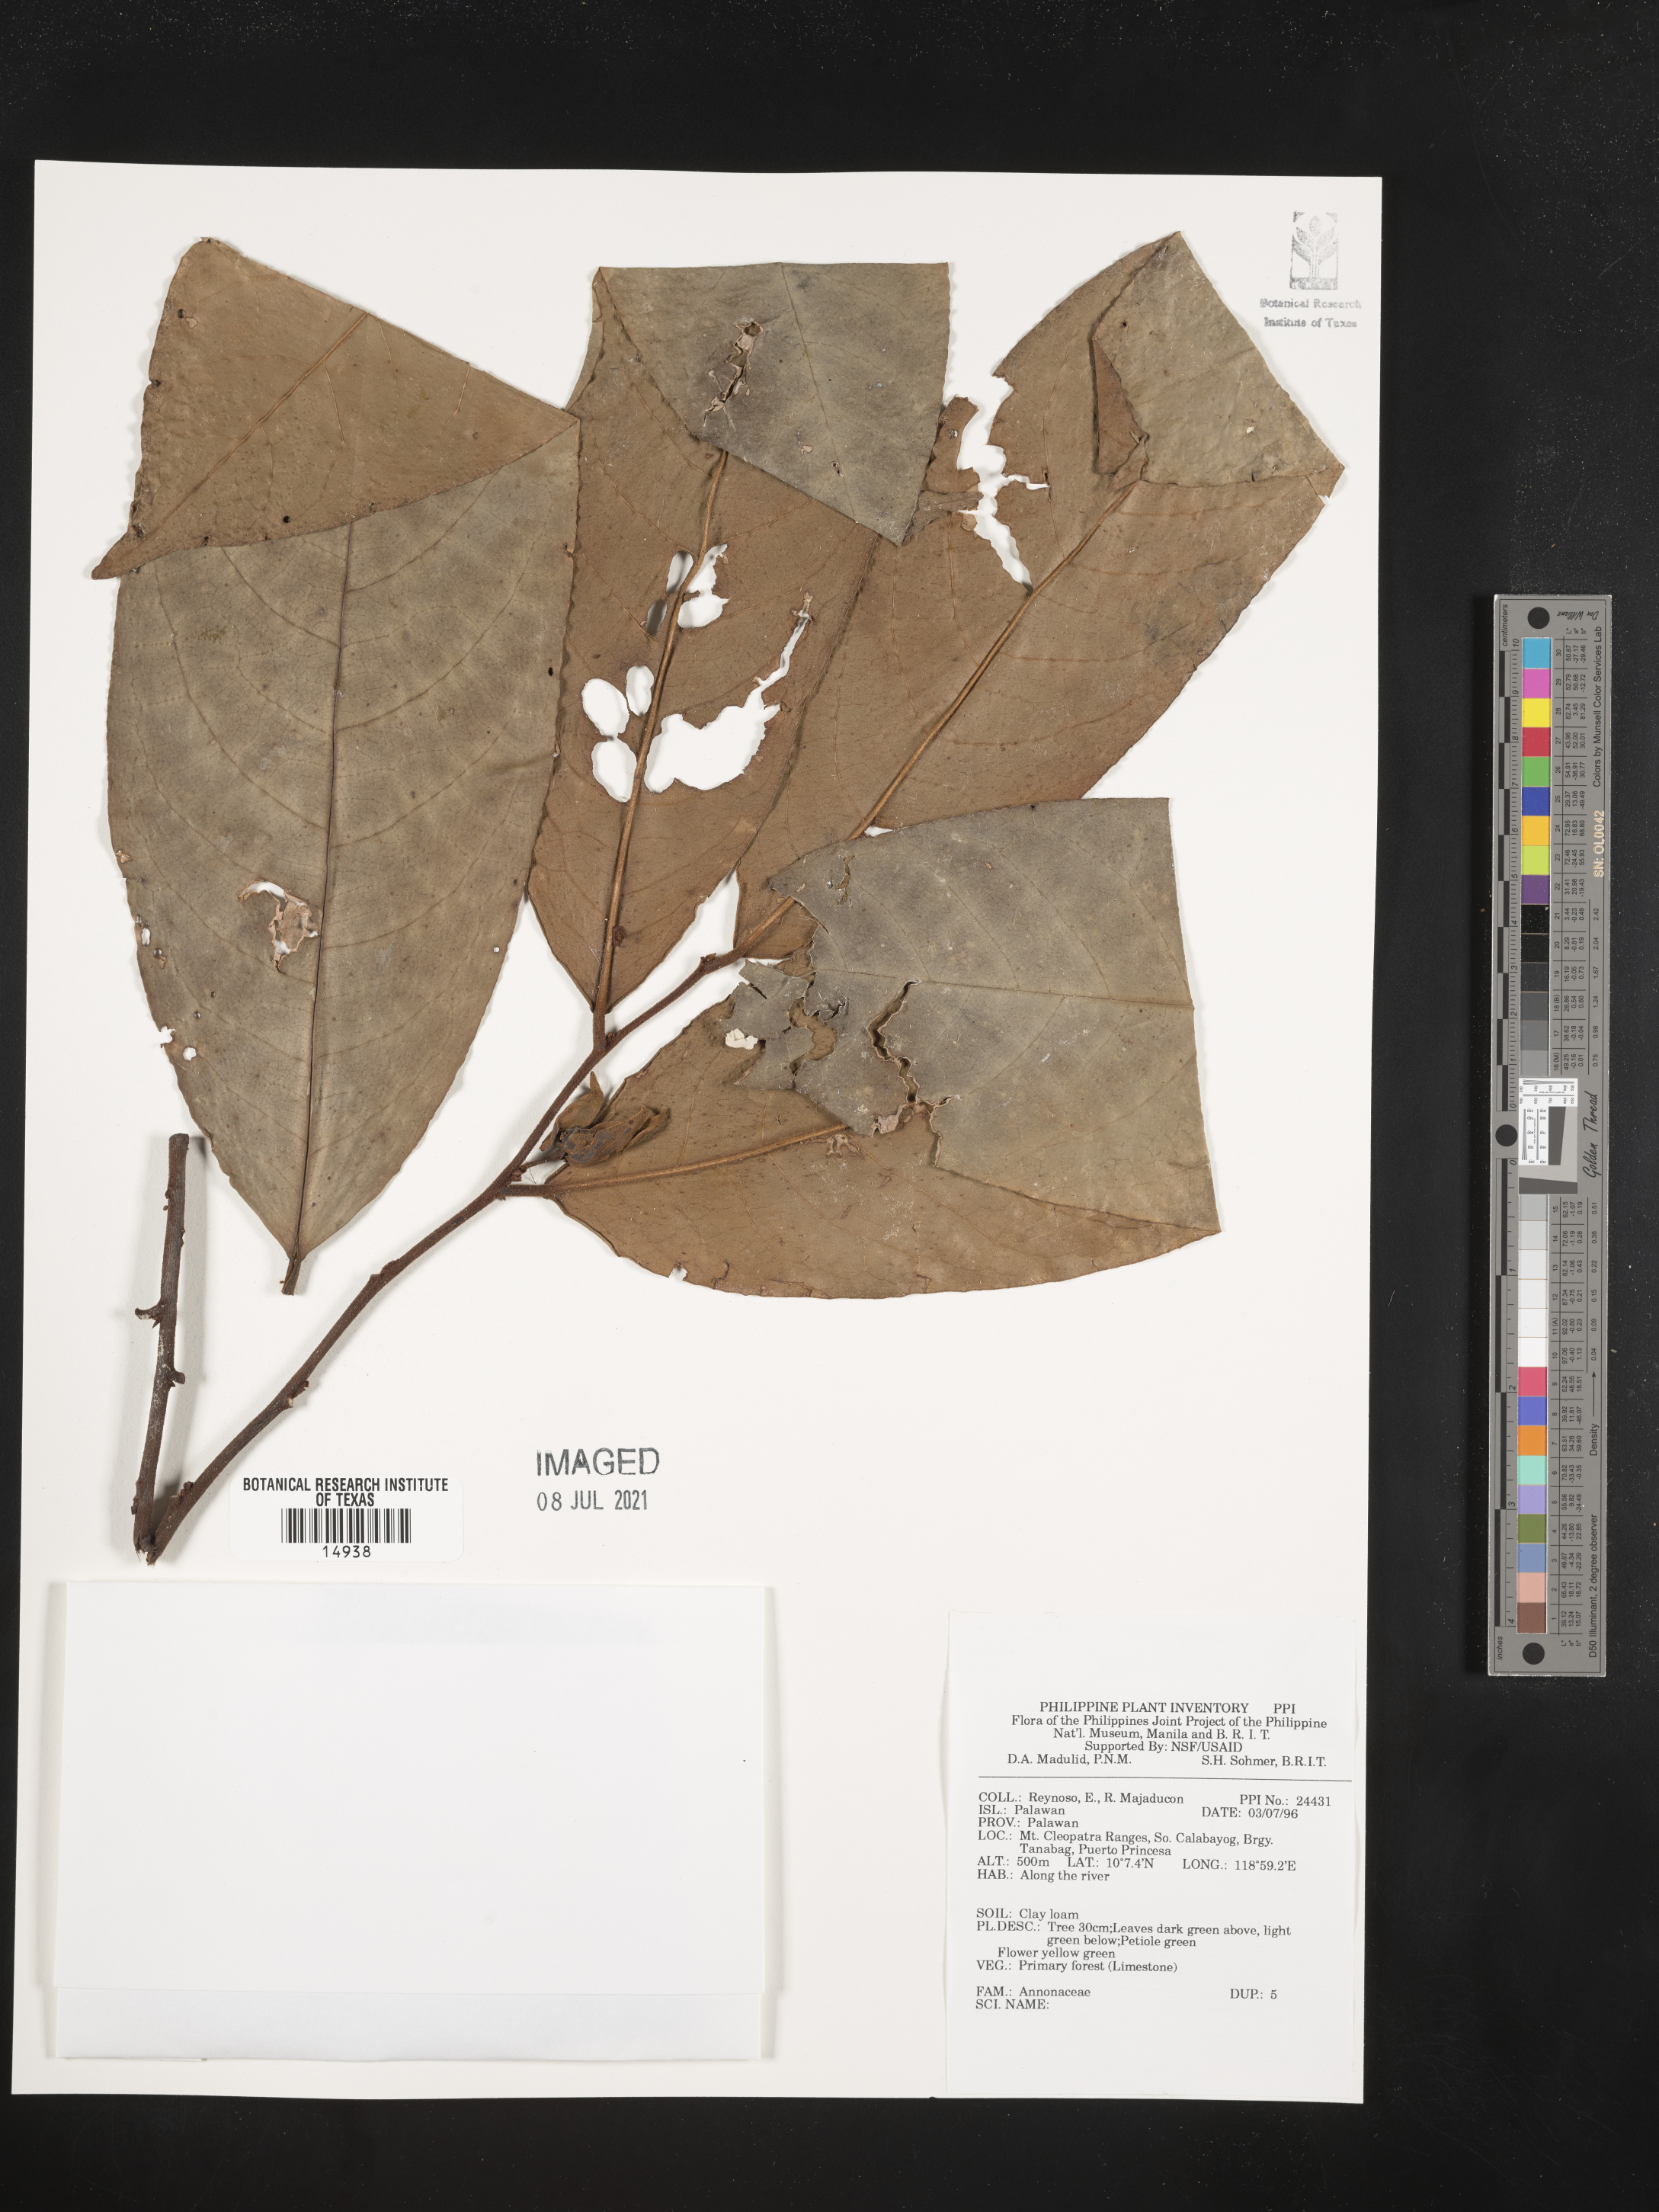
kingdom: Plantae
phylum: Tracheophyta
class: Magnoliopsida
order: Magnoliales
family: Annonaceae
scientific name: Annonaceae
